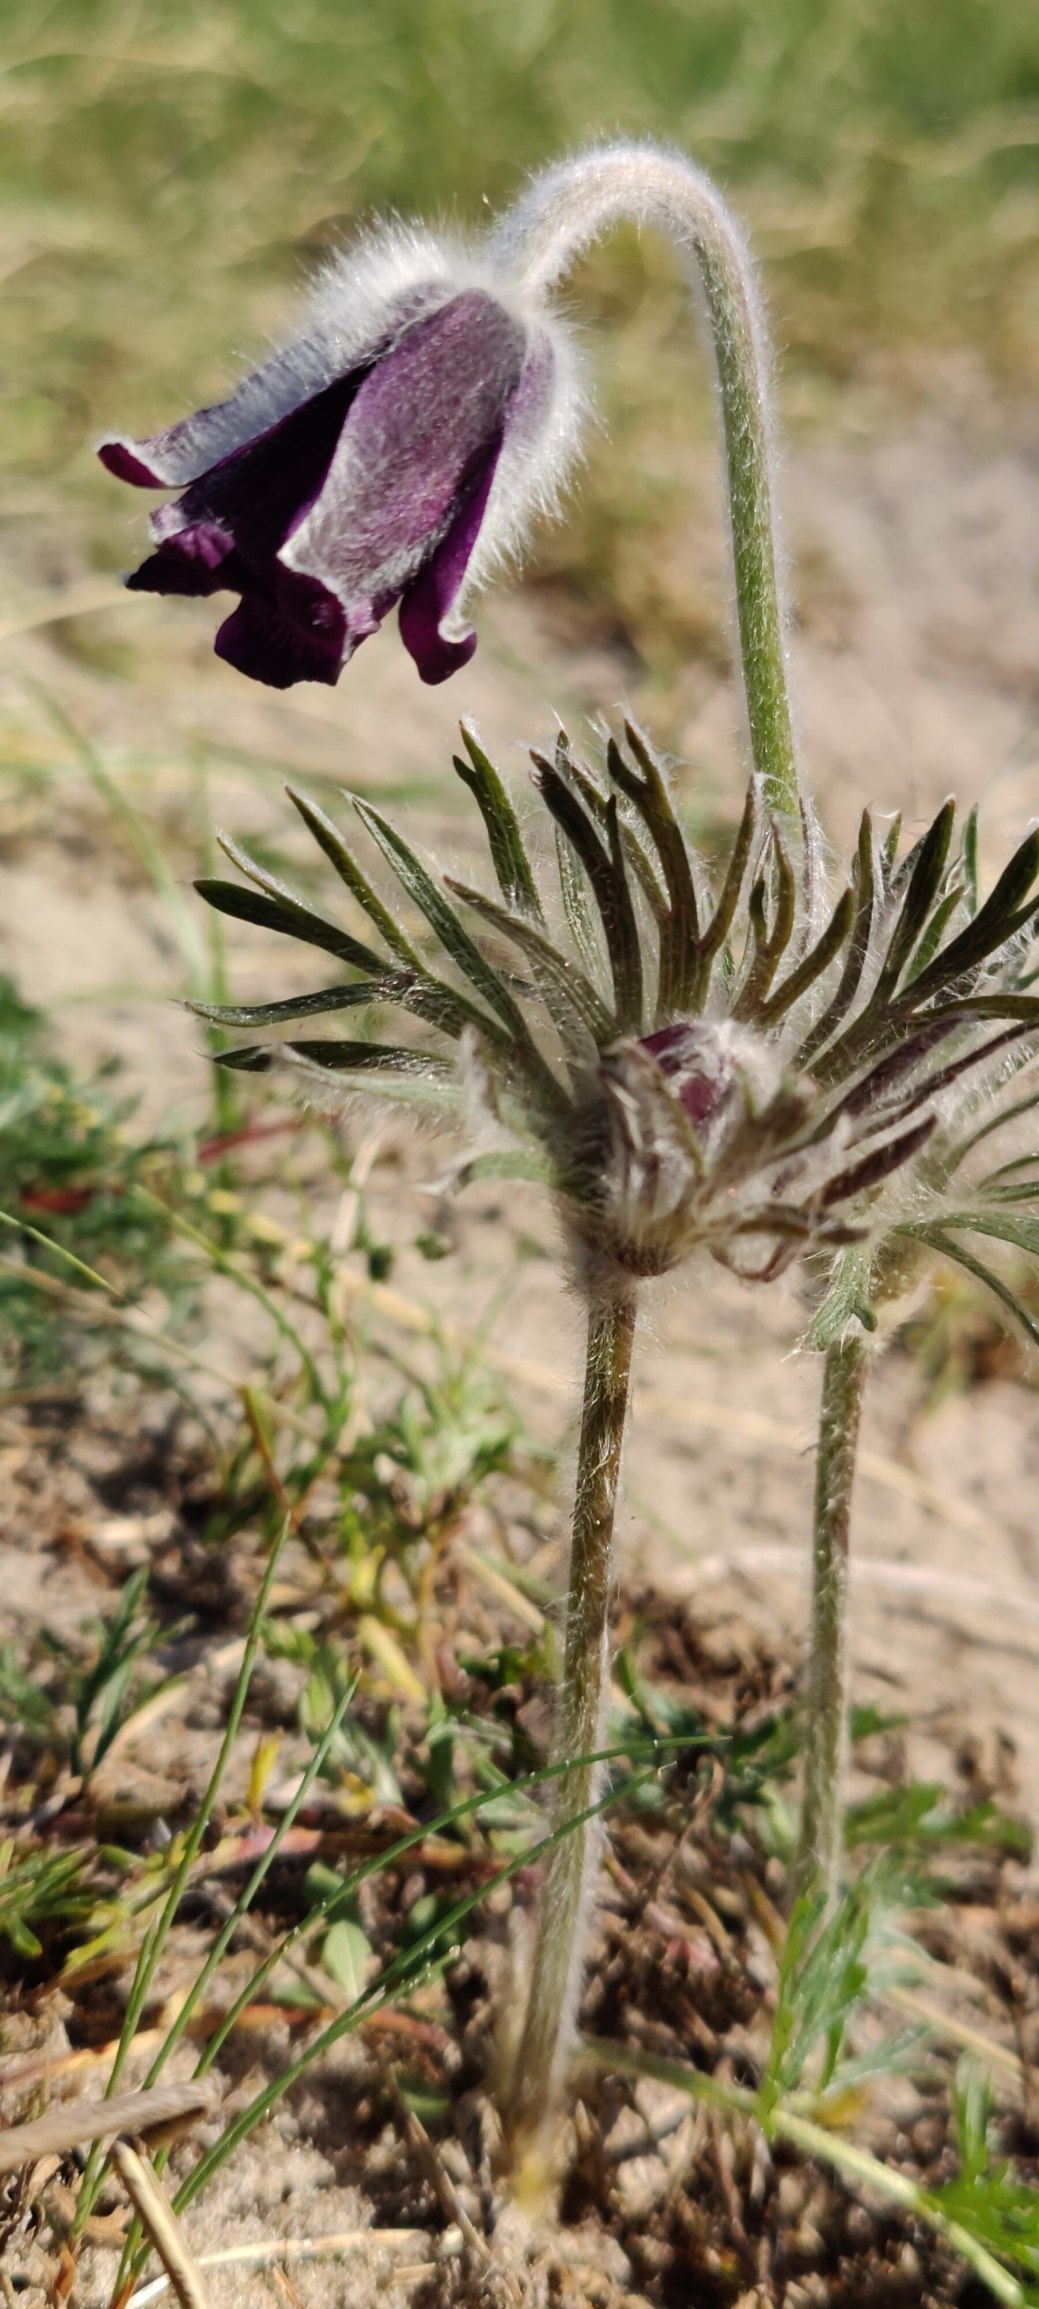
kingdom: Plantae
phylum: Tracheophyta
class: Magnoliopsida
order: Ranunculales
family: Ranunculaceae
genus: Pulsatilla
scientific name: Pulsatilla pratensis
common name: Nikkende kobjælde
